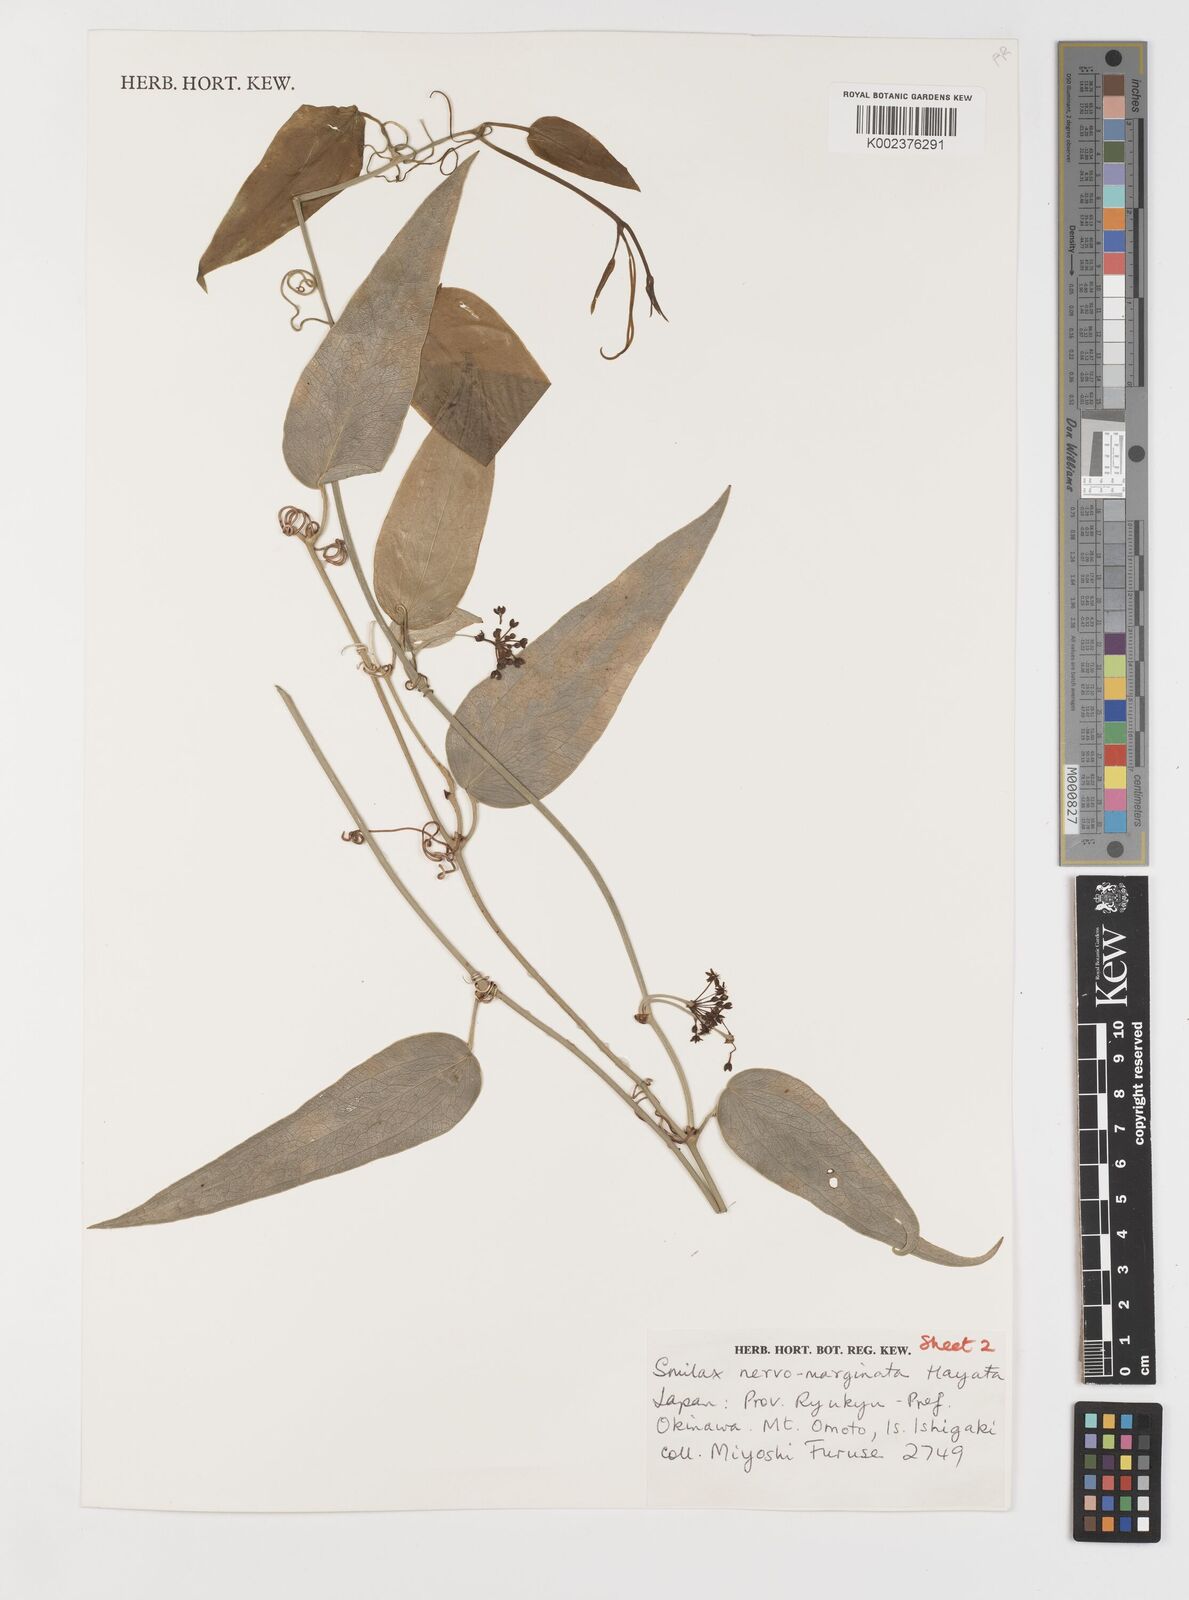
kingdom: Plantae
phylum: Tracheophyta
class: Liliopsida
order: Liliales
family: Smilacaceae
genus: Smilax
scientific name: Smilax nervomarginata
